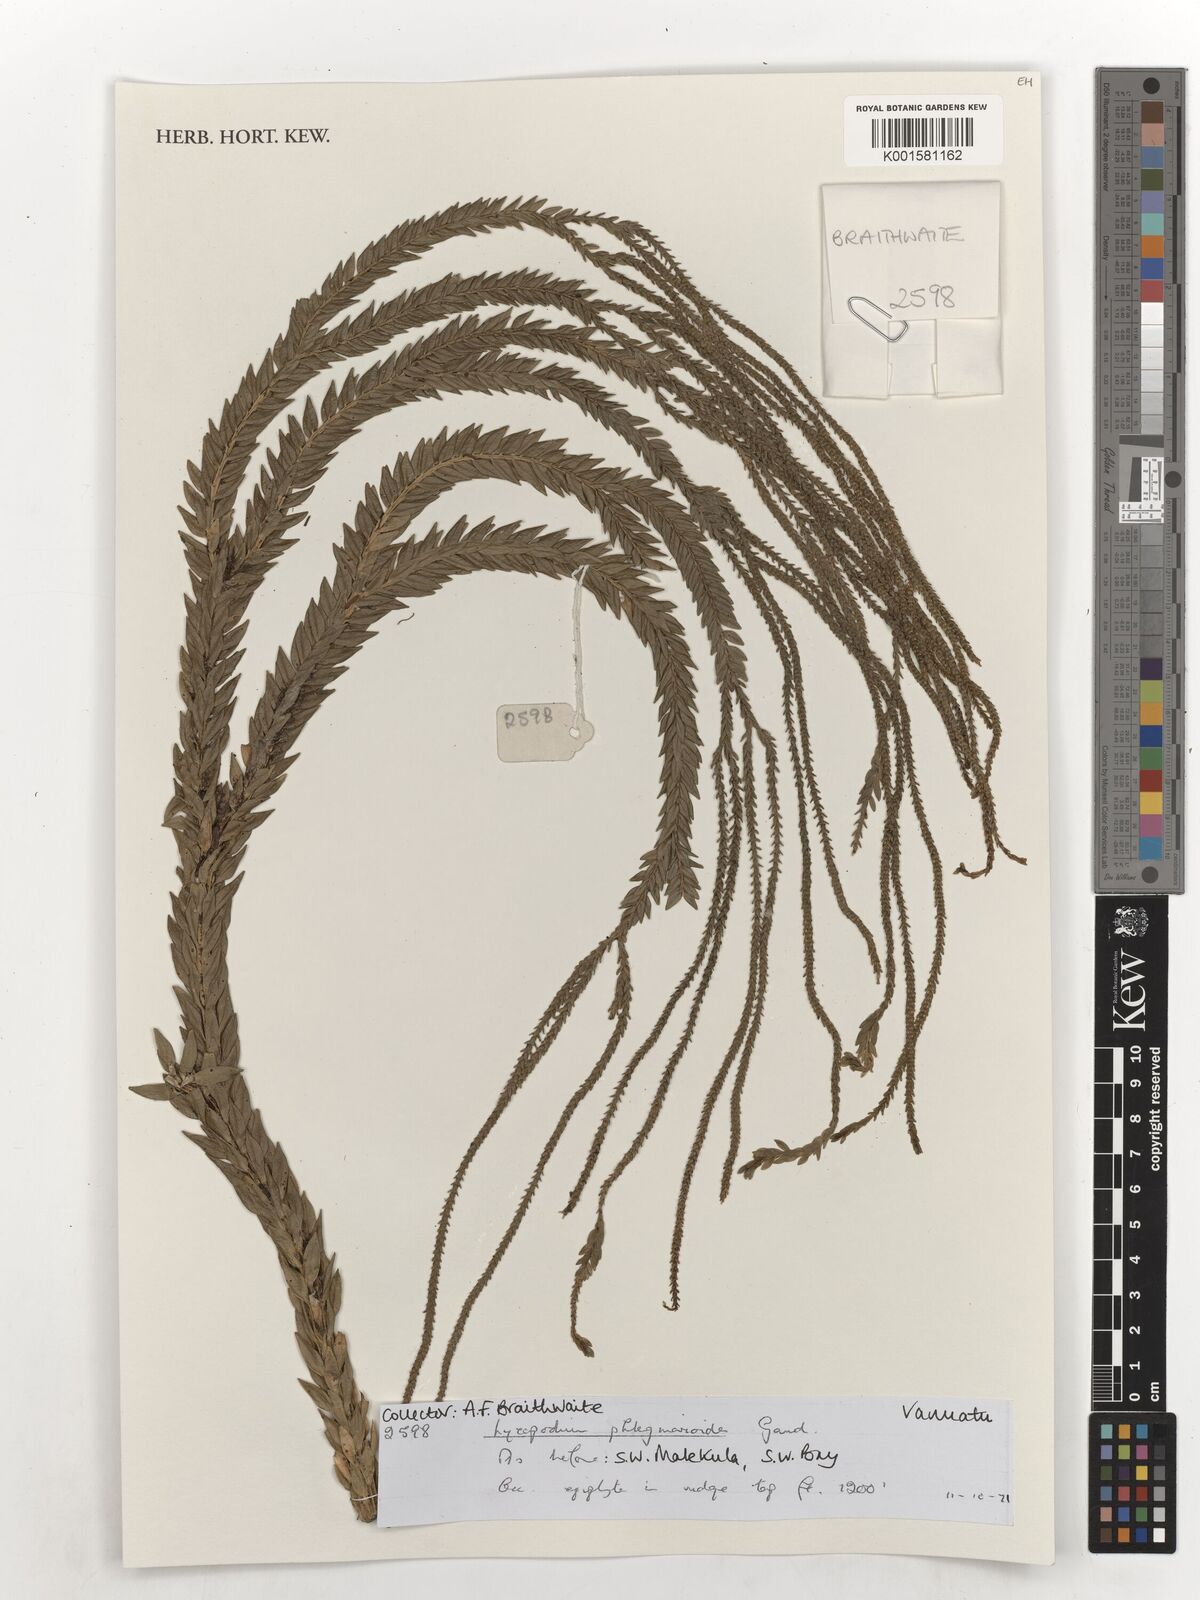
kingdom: Plantae
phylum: Tracheophyta
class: Lycopodiopsida
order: Lycopodiales
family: Lycopodiaceae
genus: Phlegmariurus
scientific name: Phlegmariurus phlegmarioides
